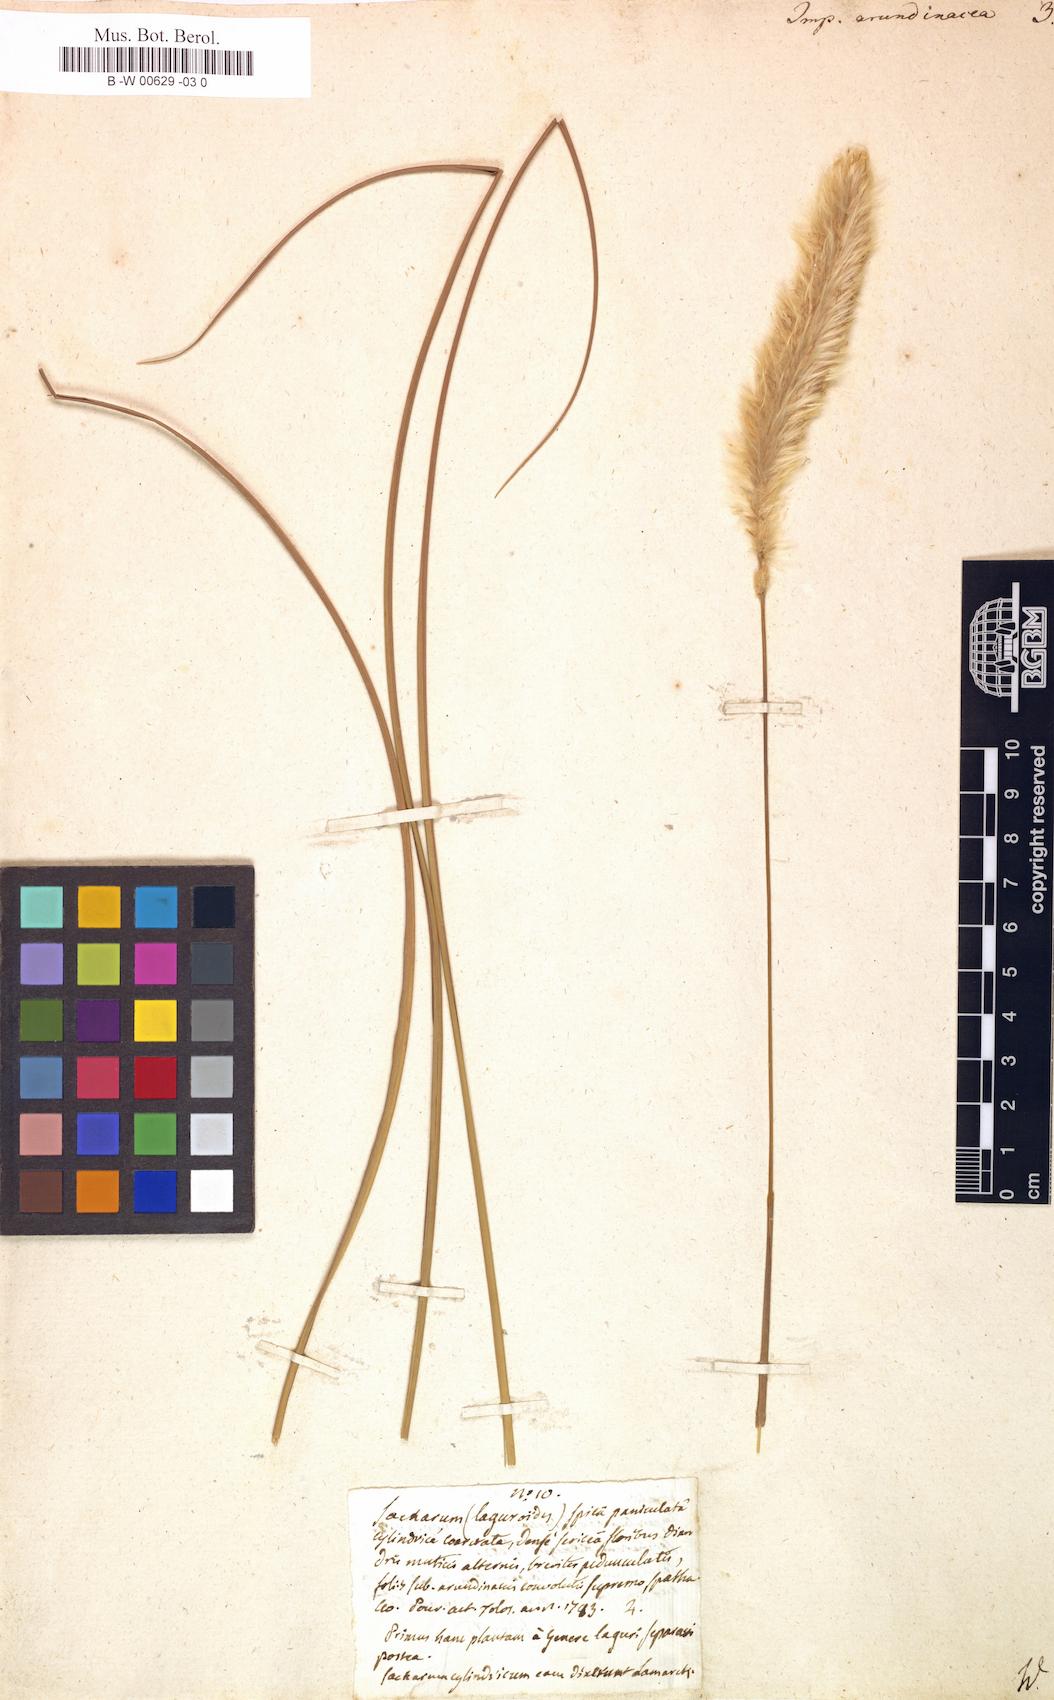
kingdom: Plantae
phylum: Tracheophyta
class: Liliopsida
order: Poales
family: Poaceae
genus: Imperata
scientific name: Imperata cylindrica
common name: Cogongrass
